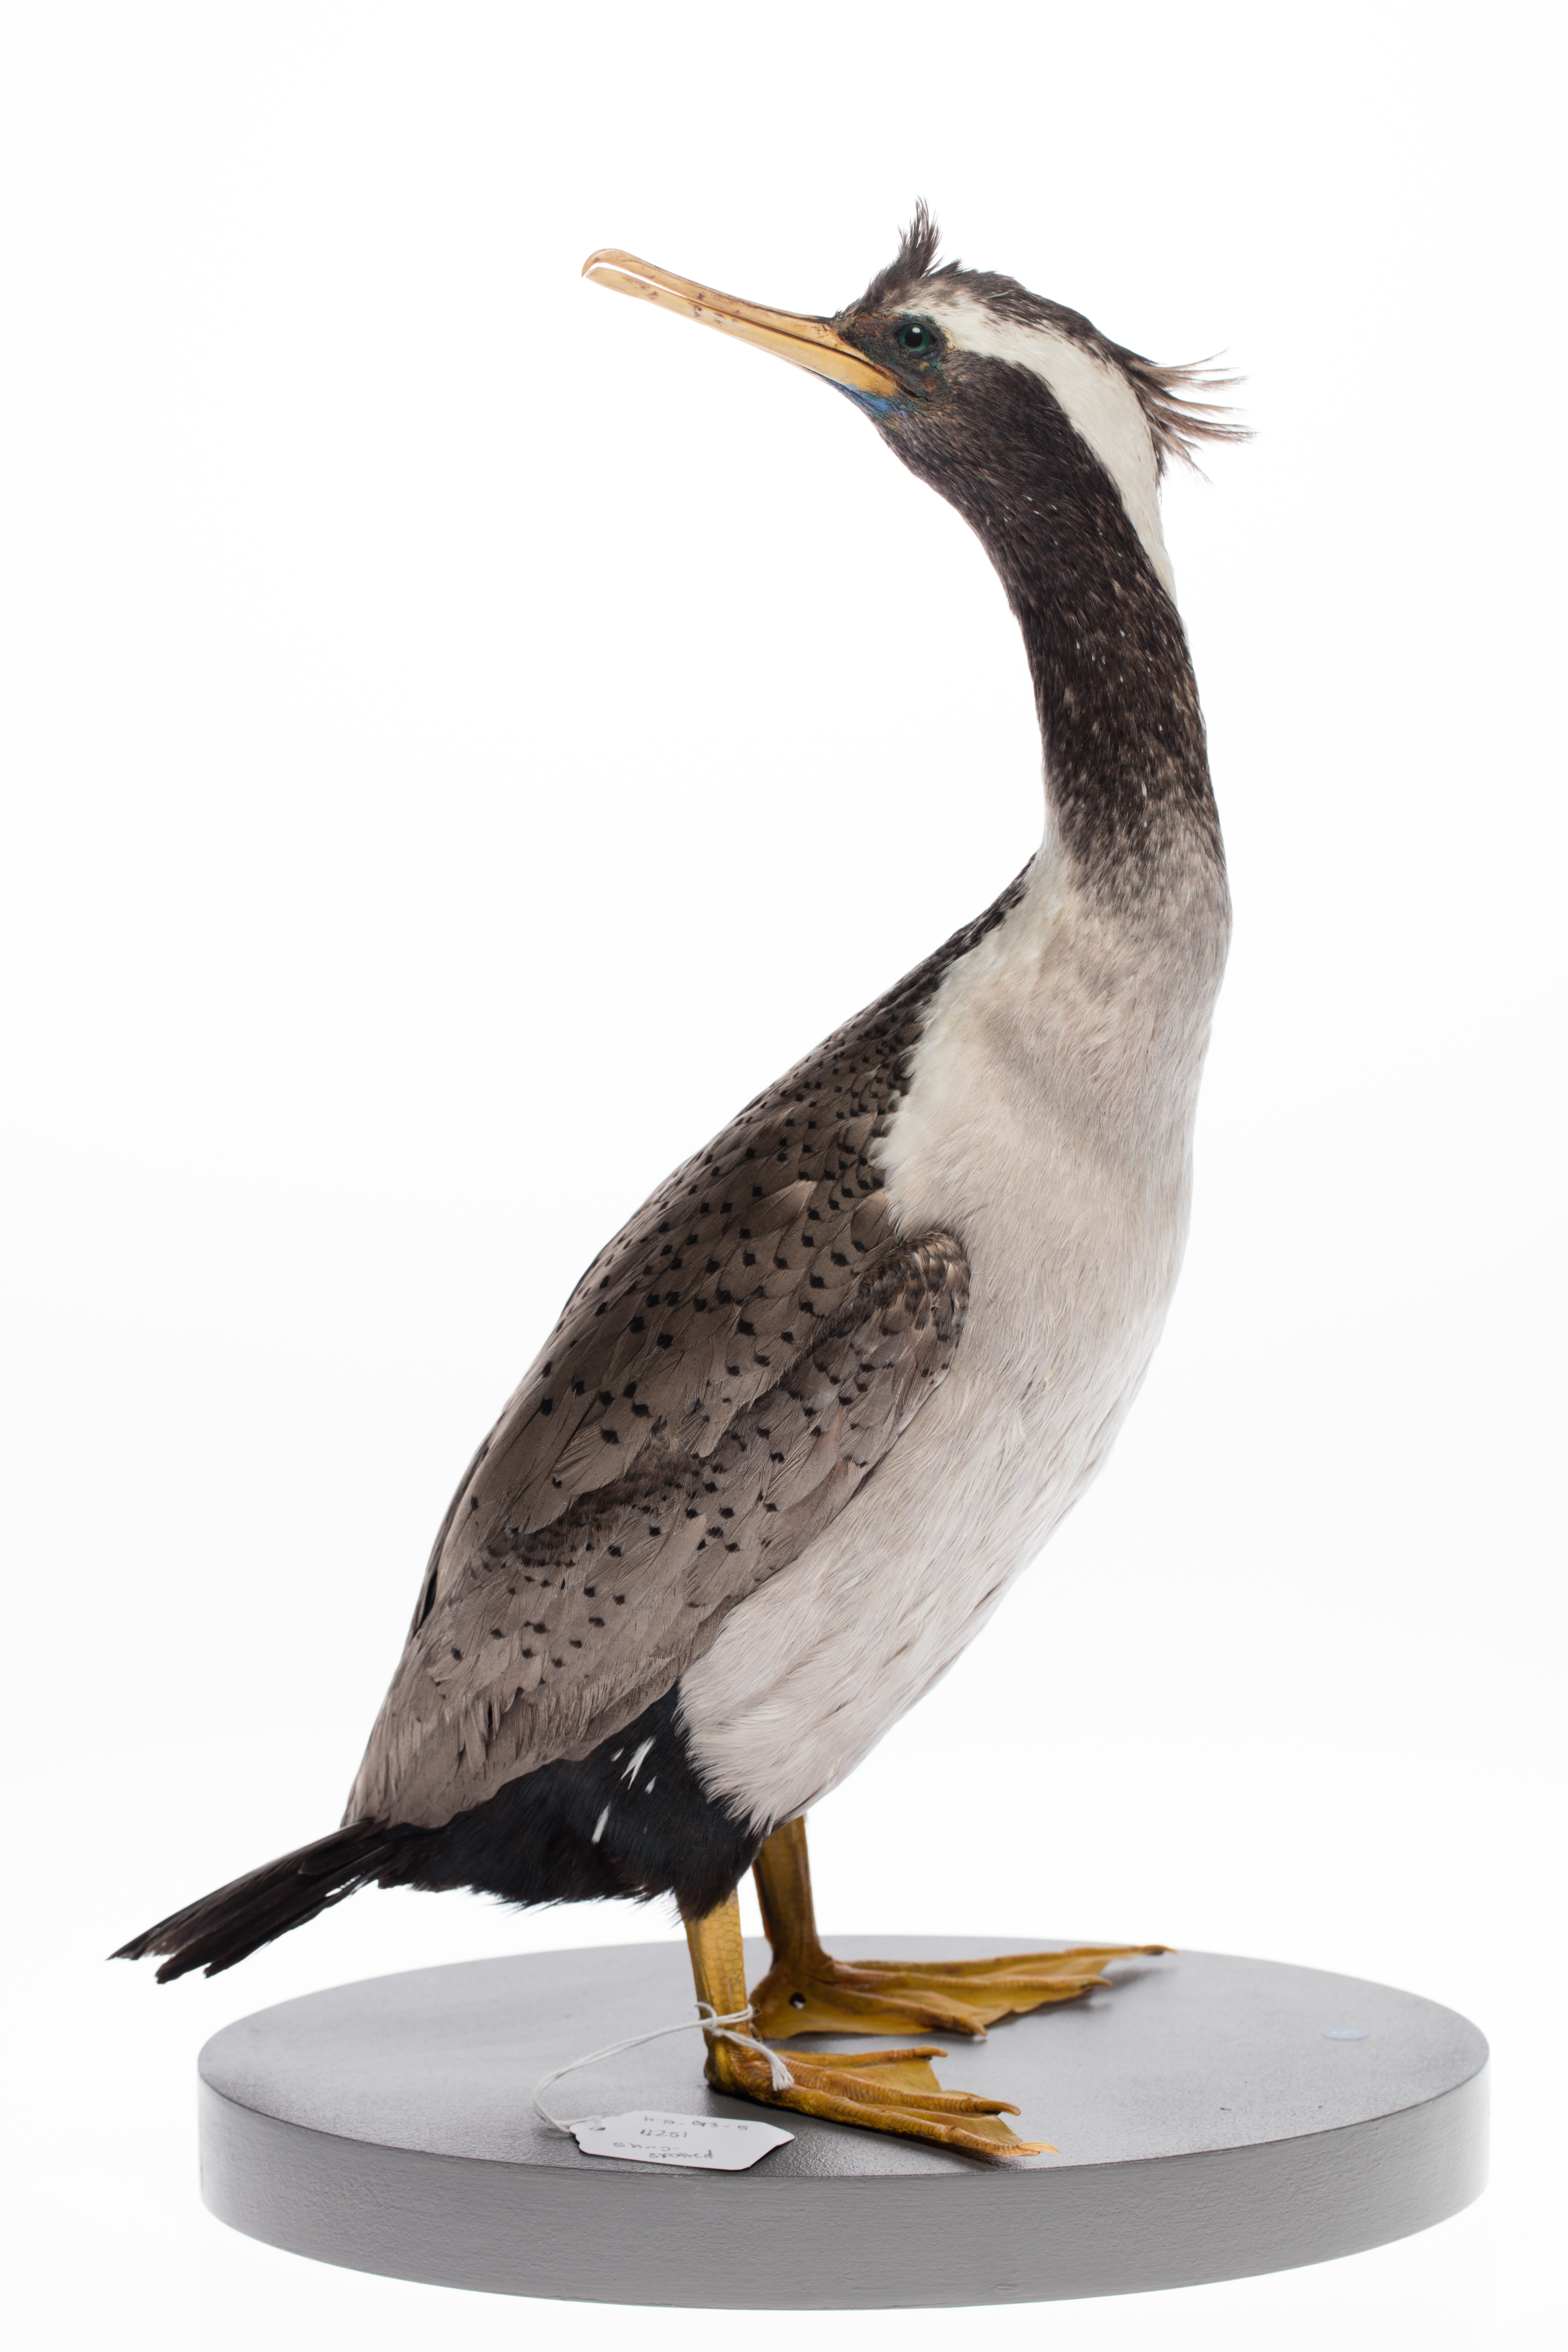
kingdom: Animalia
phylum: Chordata
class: Aves
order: Suliformes
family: Phalacrocoracidae
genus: Phalacrocorax
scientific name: Phalacrocorax punctatus
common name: Spotted shag
